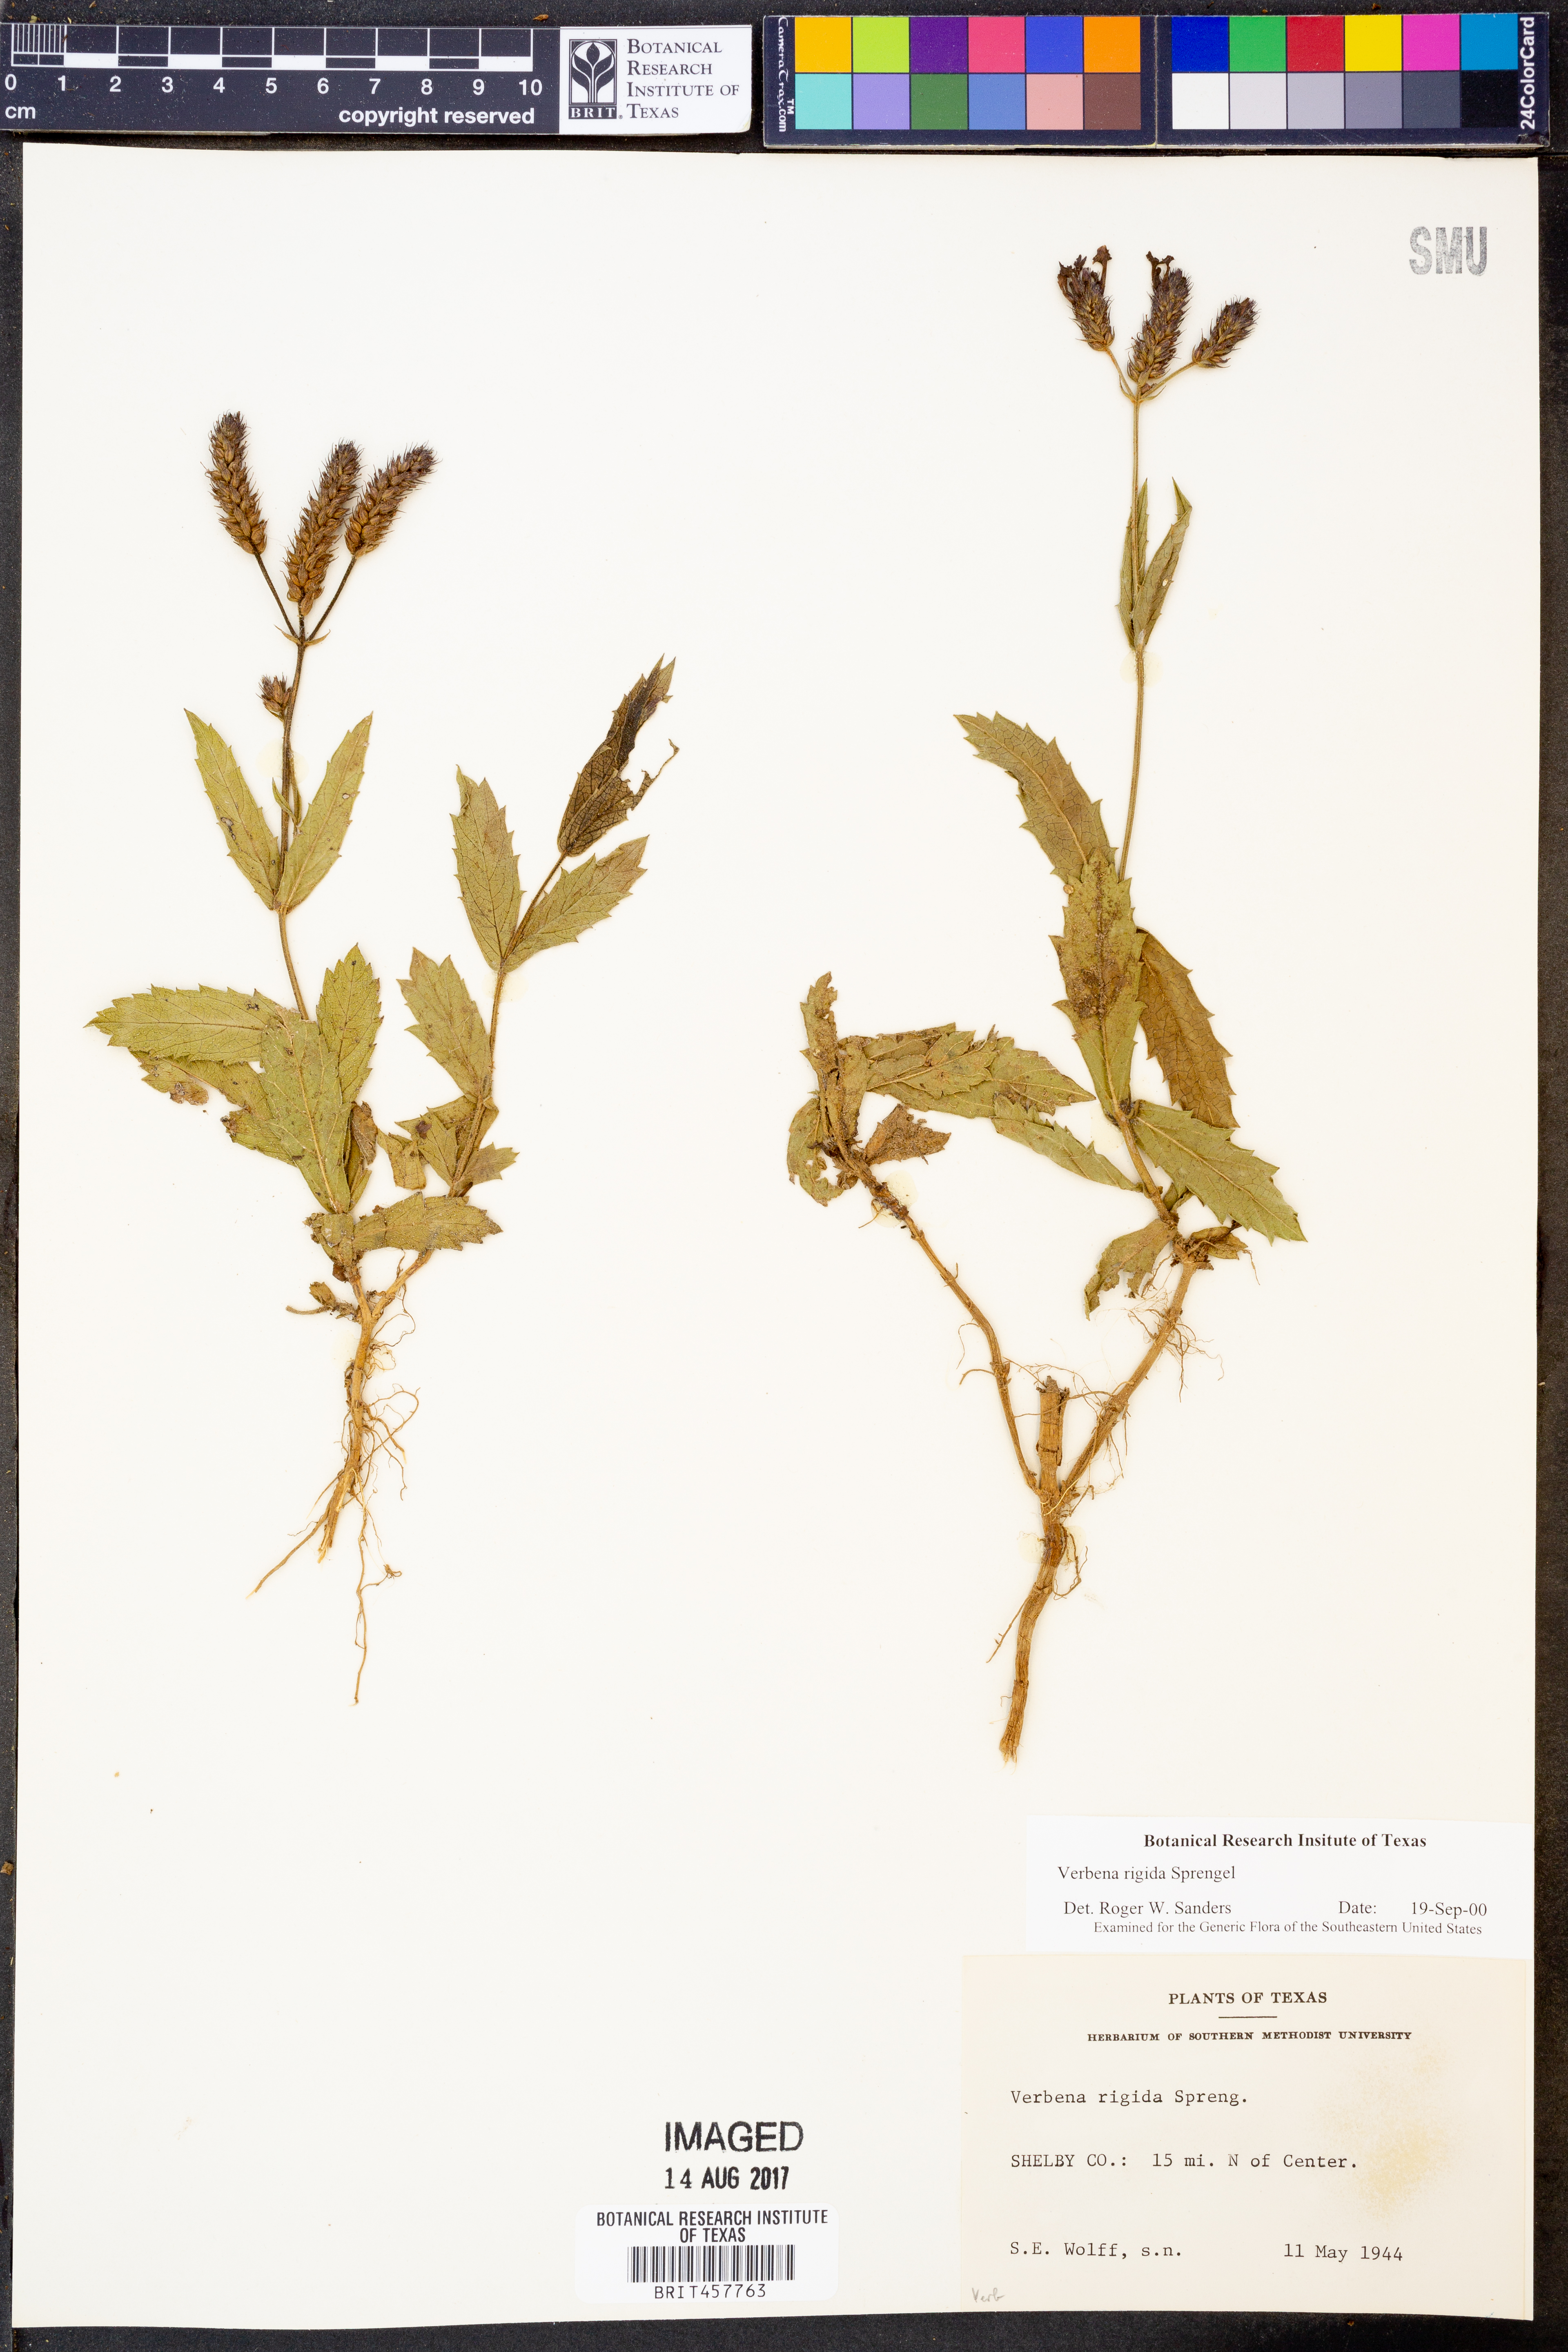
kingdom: Plantae
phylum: Tracheophyta
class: Magnoliopsida
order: Lamiales
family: Verbenaceae
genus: Verbena
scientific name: Verbena rigida
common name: Slender vervain
